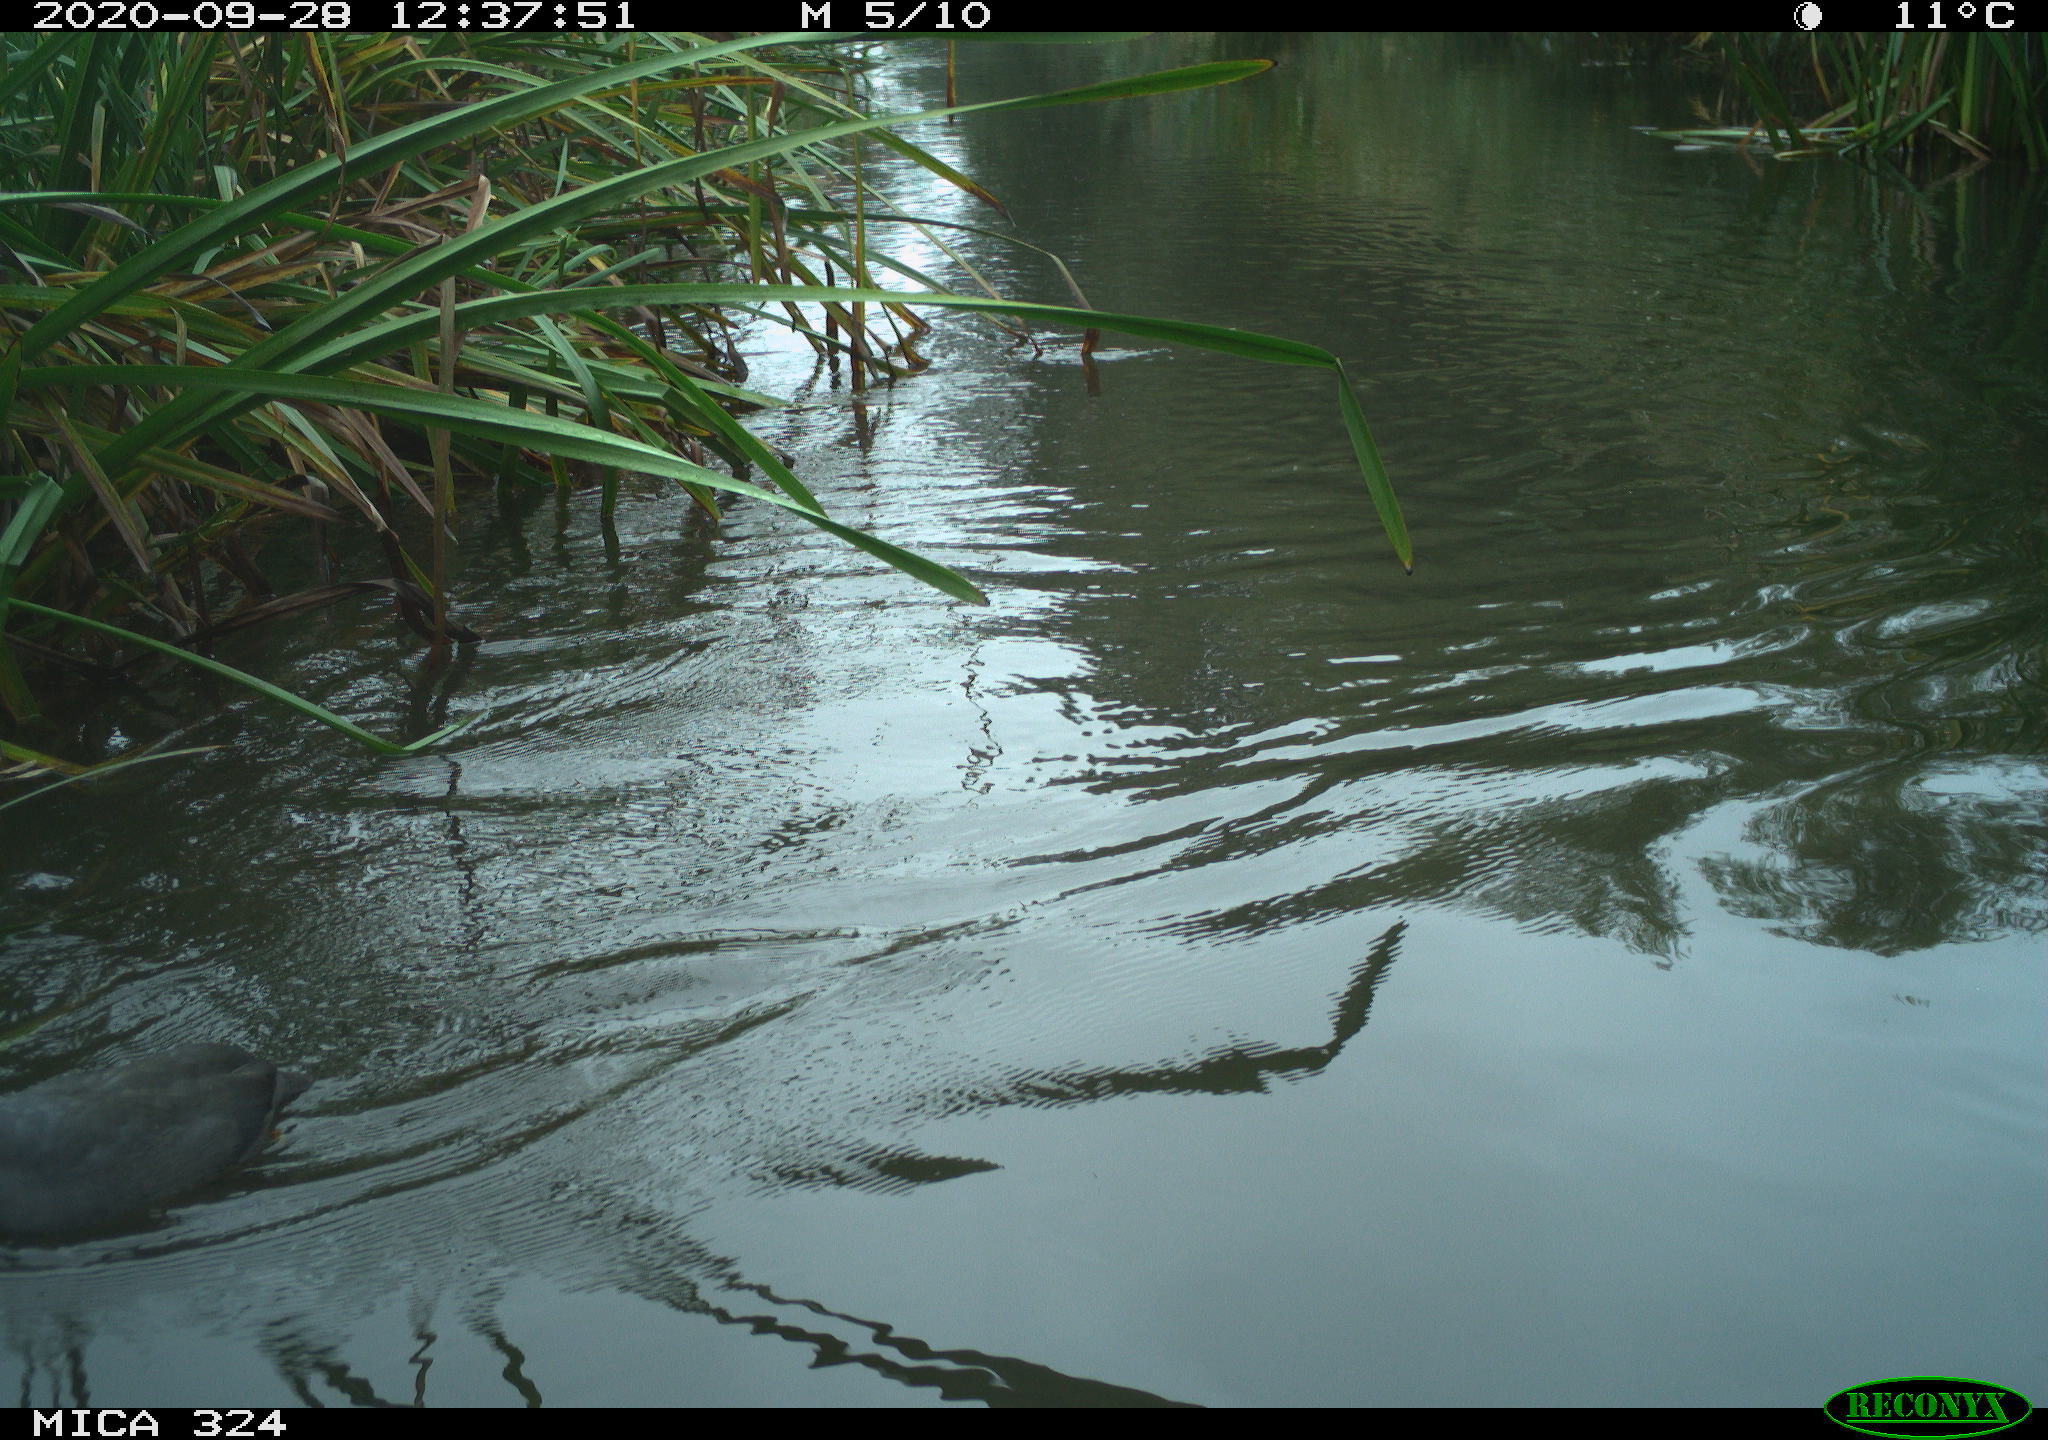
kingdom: Animalia
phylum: Chordata
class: Aves
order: Gruiformes
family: Rallidae
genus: Fulica
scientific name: Fulica atra
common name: Eurasian coot
